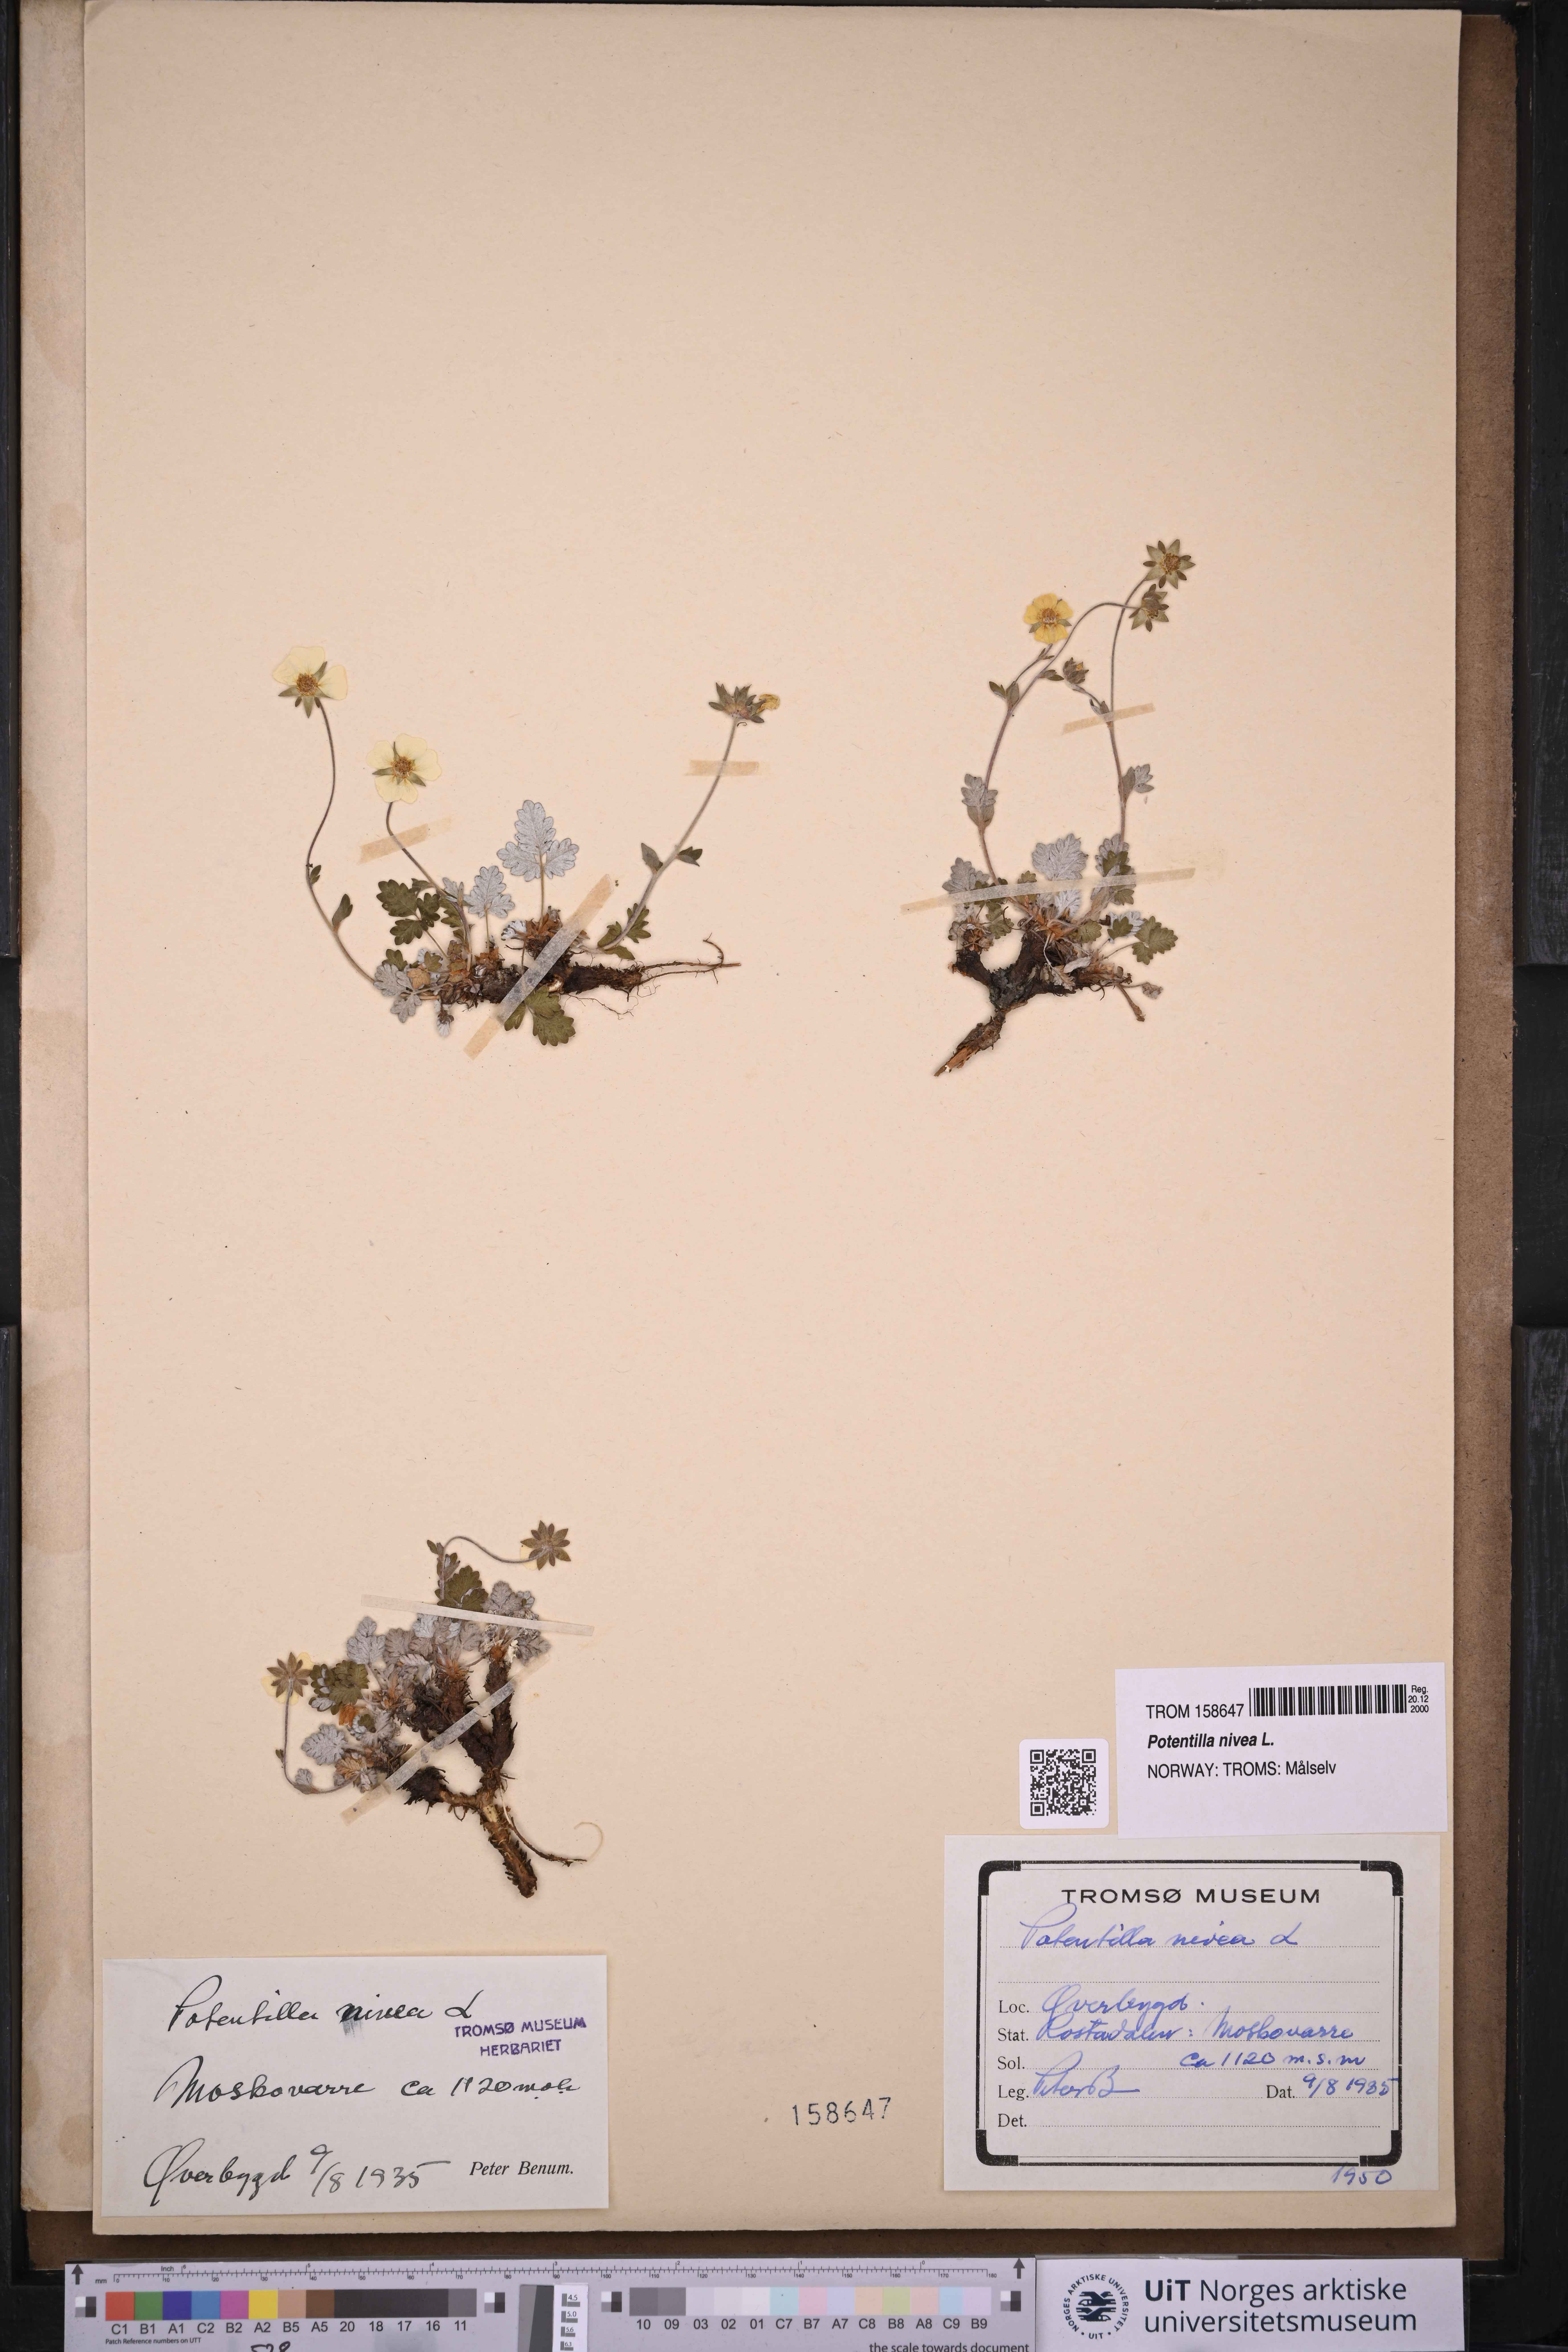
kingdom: Plantae
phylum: Tracheophyta
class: Magnoliopsida
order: Rosales
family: Rosaceae
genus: Potentilla
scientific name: Potentilla arenosa
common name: Bluff cinquefoil
